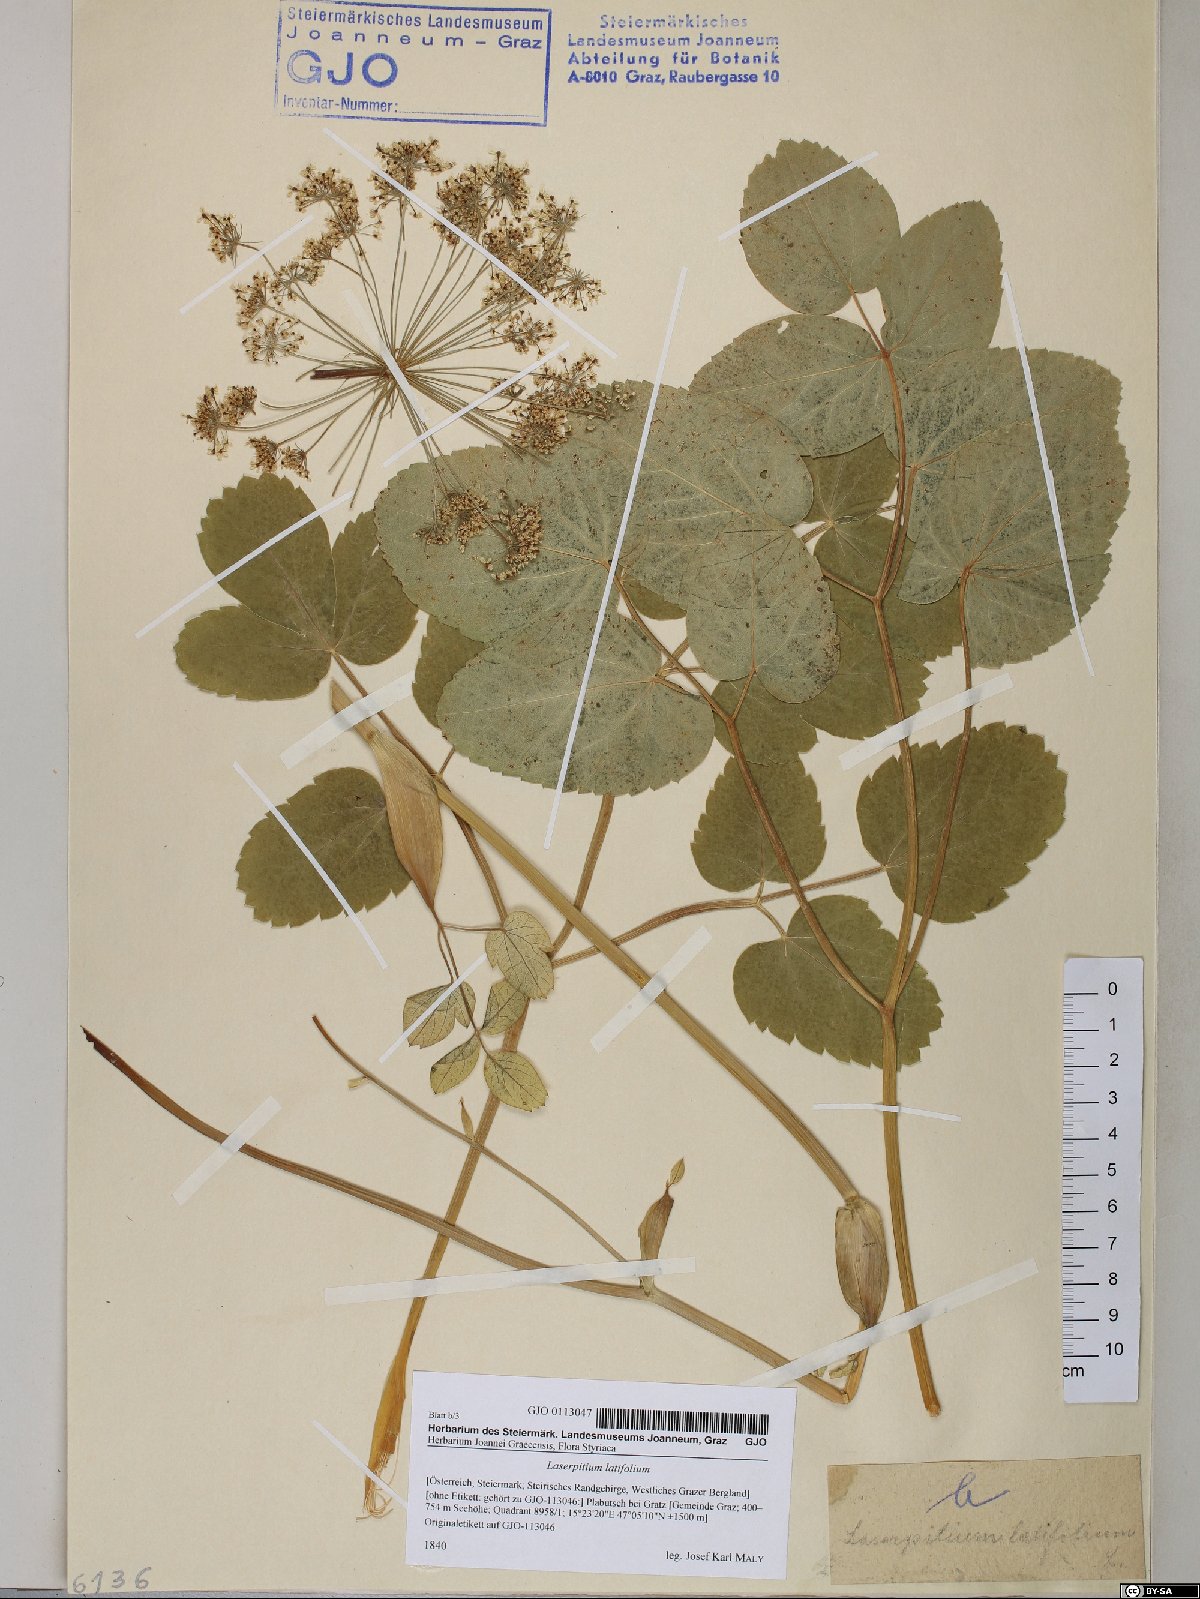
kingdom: Plantae
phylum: Tracheophyta
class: Magnoliopsida
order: Apiales
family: Apiaceae
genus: Laserpitium
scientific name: Laserpitium latifolium
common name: Broadleaf sermountain
